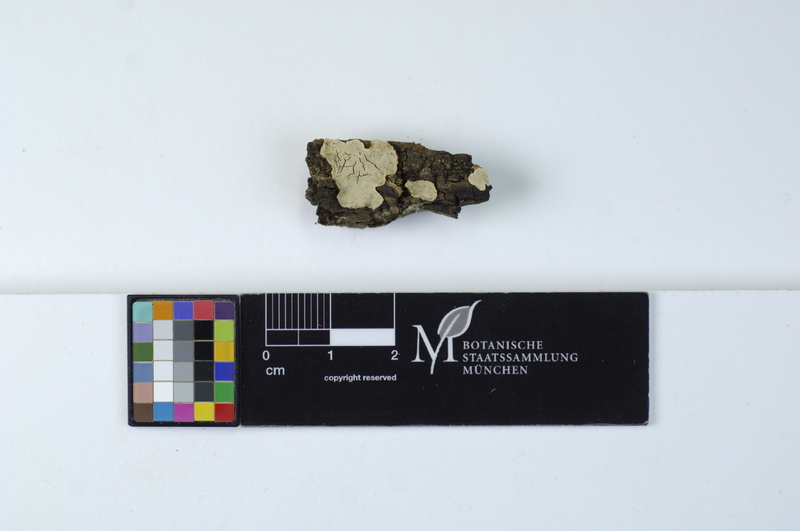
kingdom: Fungi
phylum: Basidiomycota
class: Agaricomycetes
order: Russulales
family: Stereaceae
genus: Aleurodiscus
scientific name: Aleurodiscus disciformis
